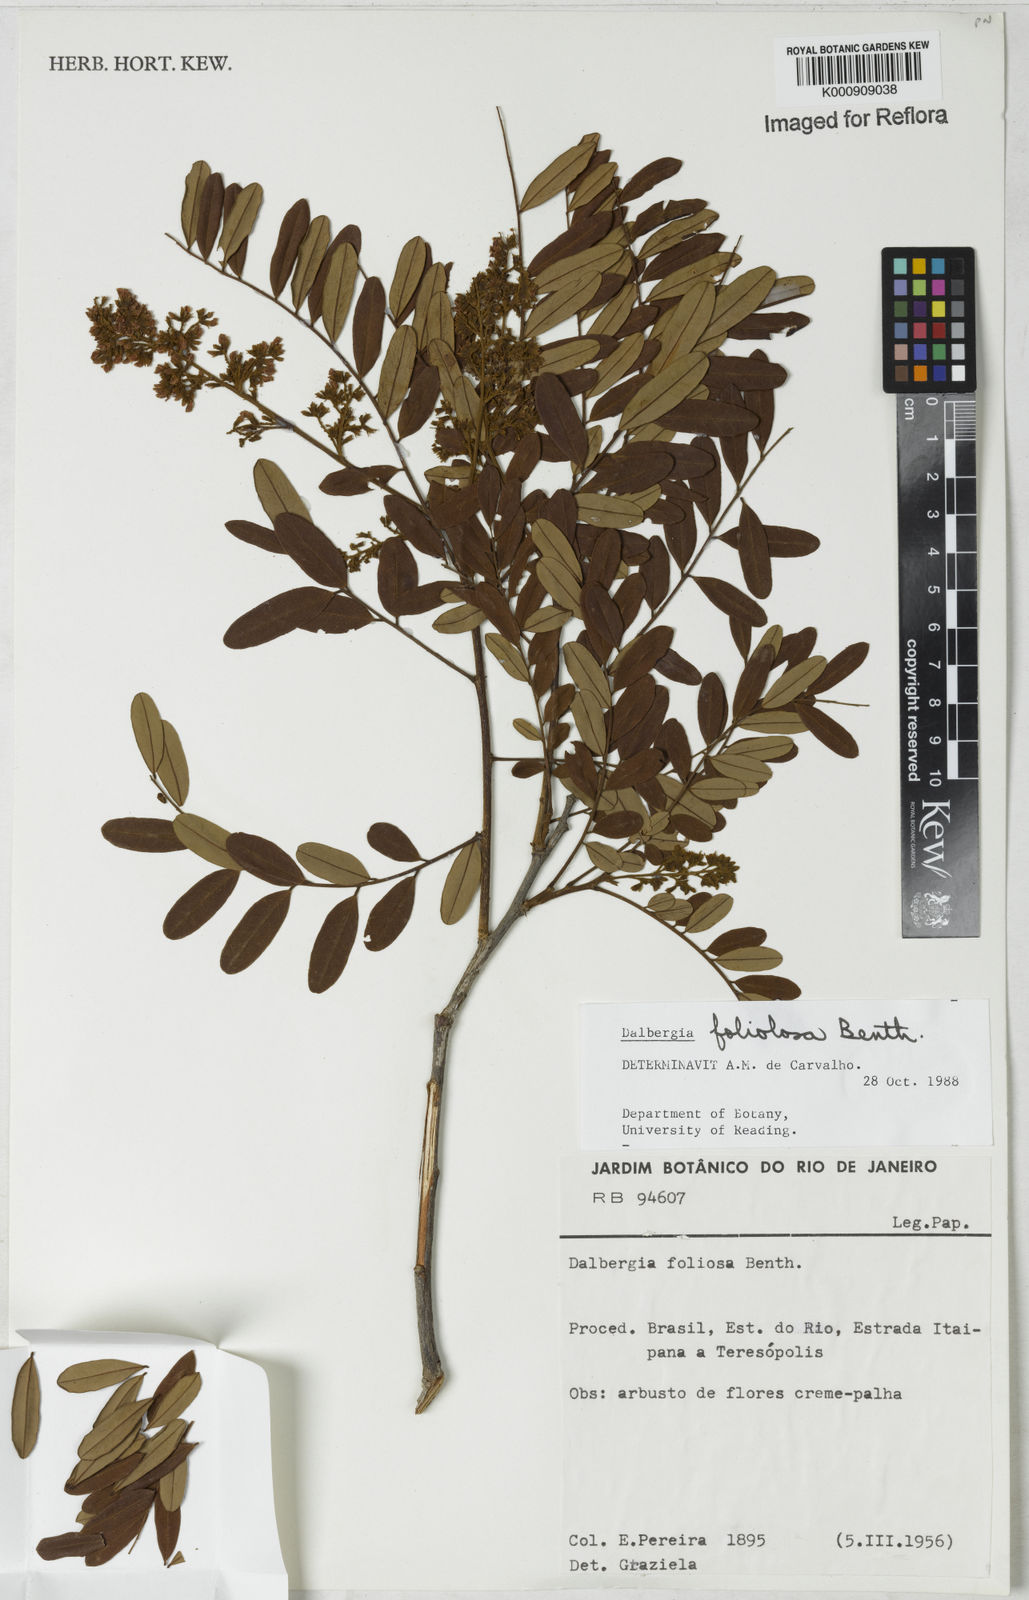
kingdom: Plantae
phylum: Tracheophyta
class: Magnoliopsida
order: Fabales
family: Fabaceae
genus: Dalbergia
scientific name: Dalbergia foliolosa
